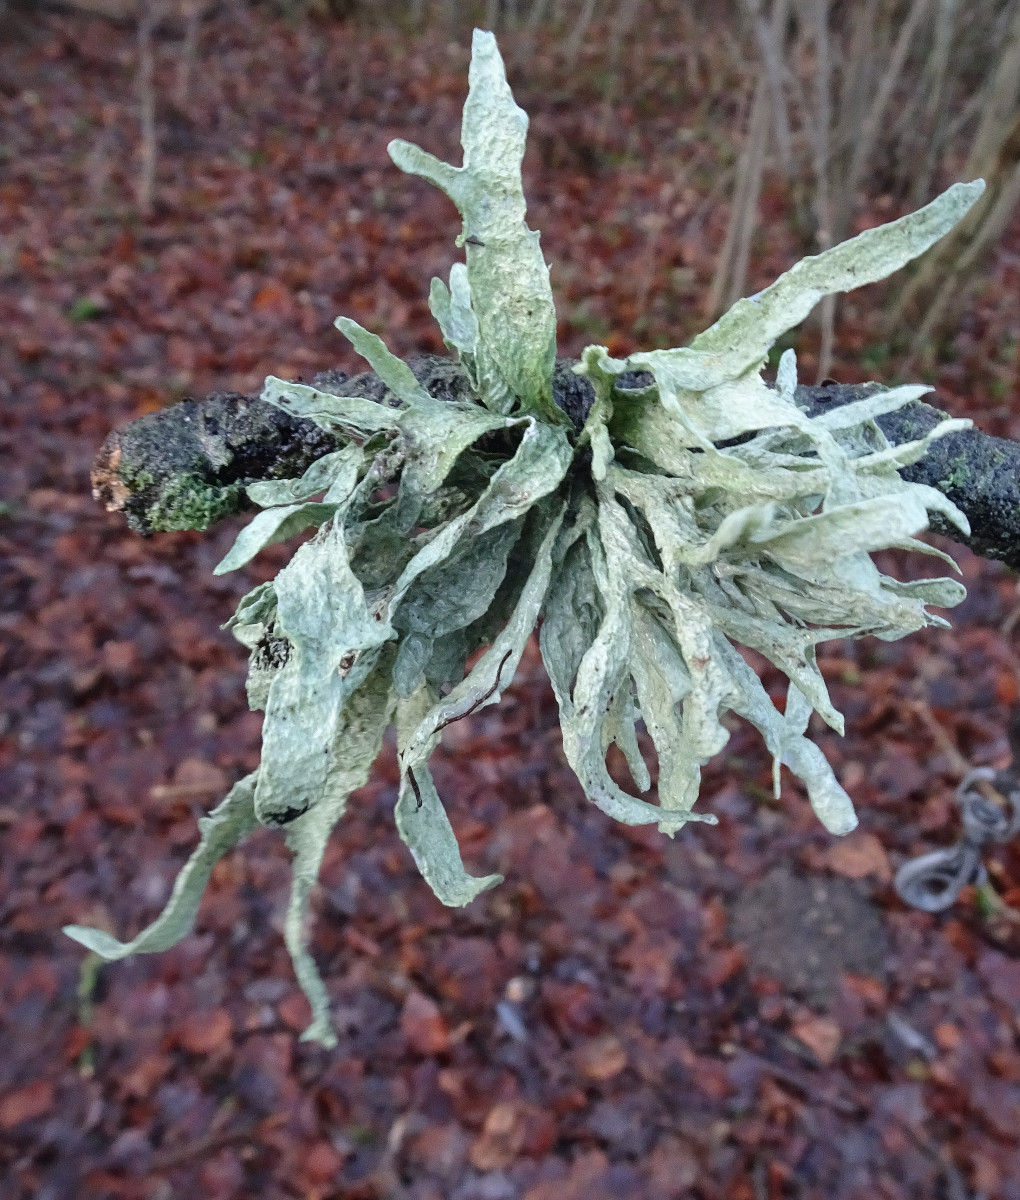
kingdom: Fungi
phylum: Ascomycota
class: Lecanoromycetes
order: Lecanorales
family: Ramalinaceae
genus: Ramalina
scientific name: Ramalina fraxinea
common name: stor grenlav
